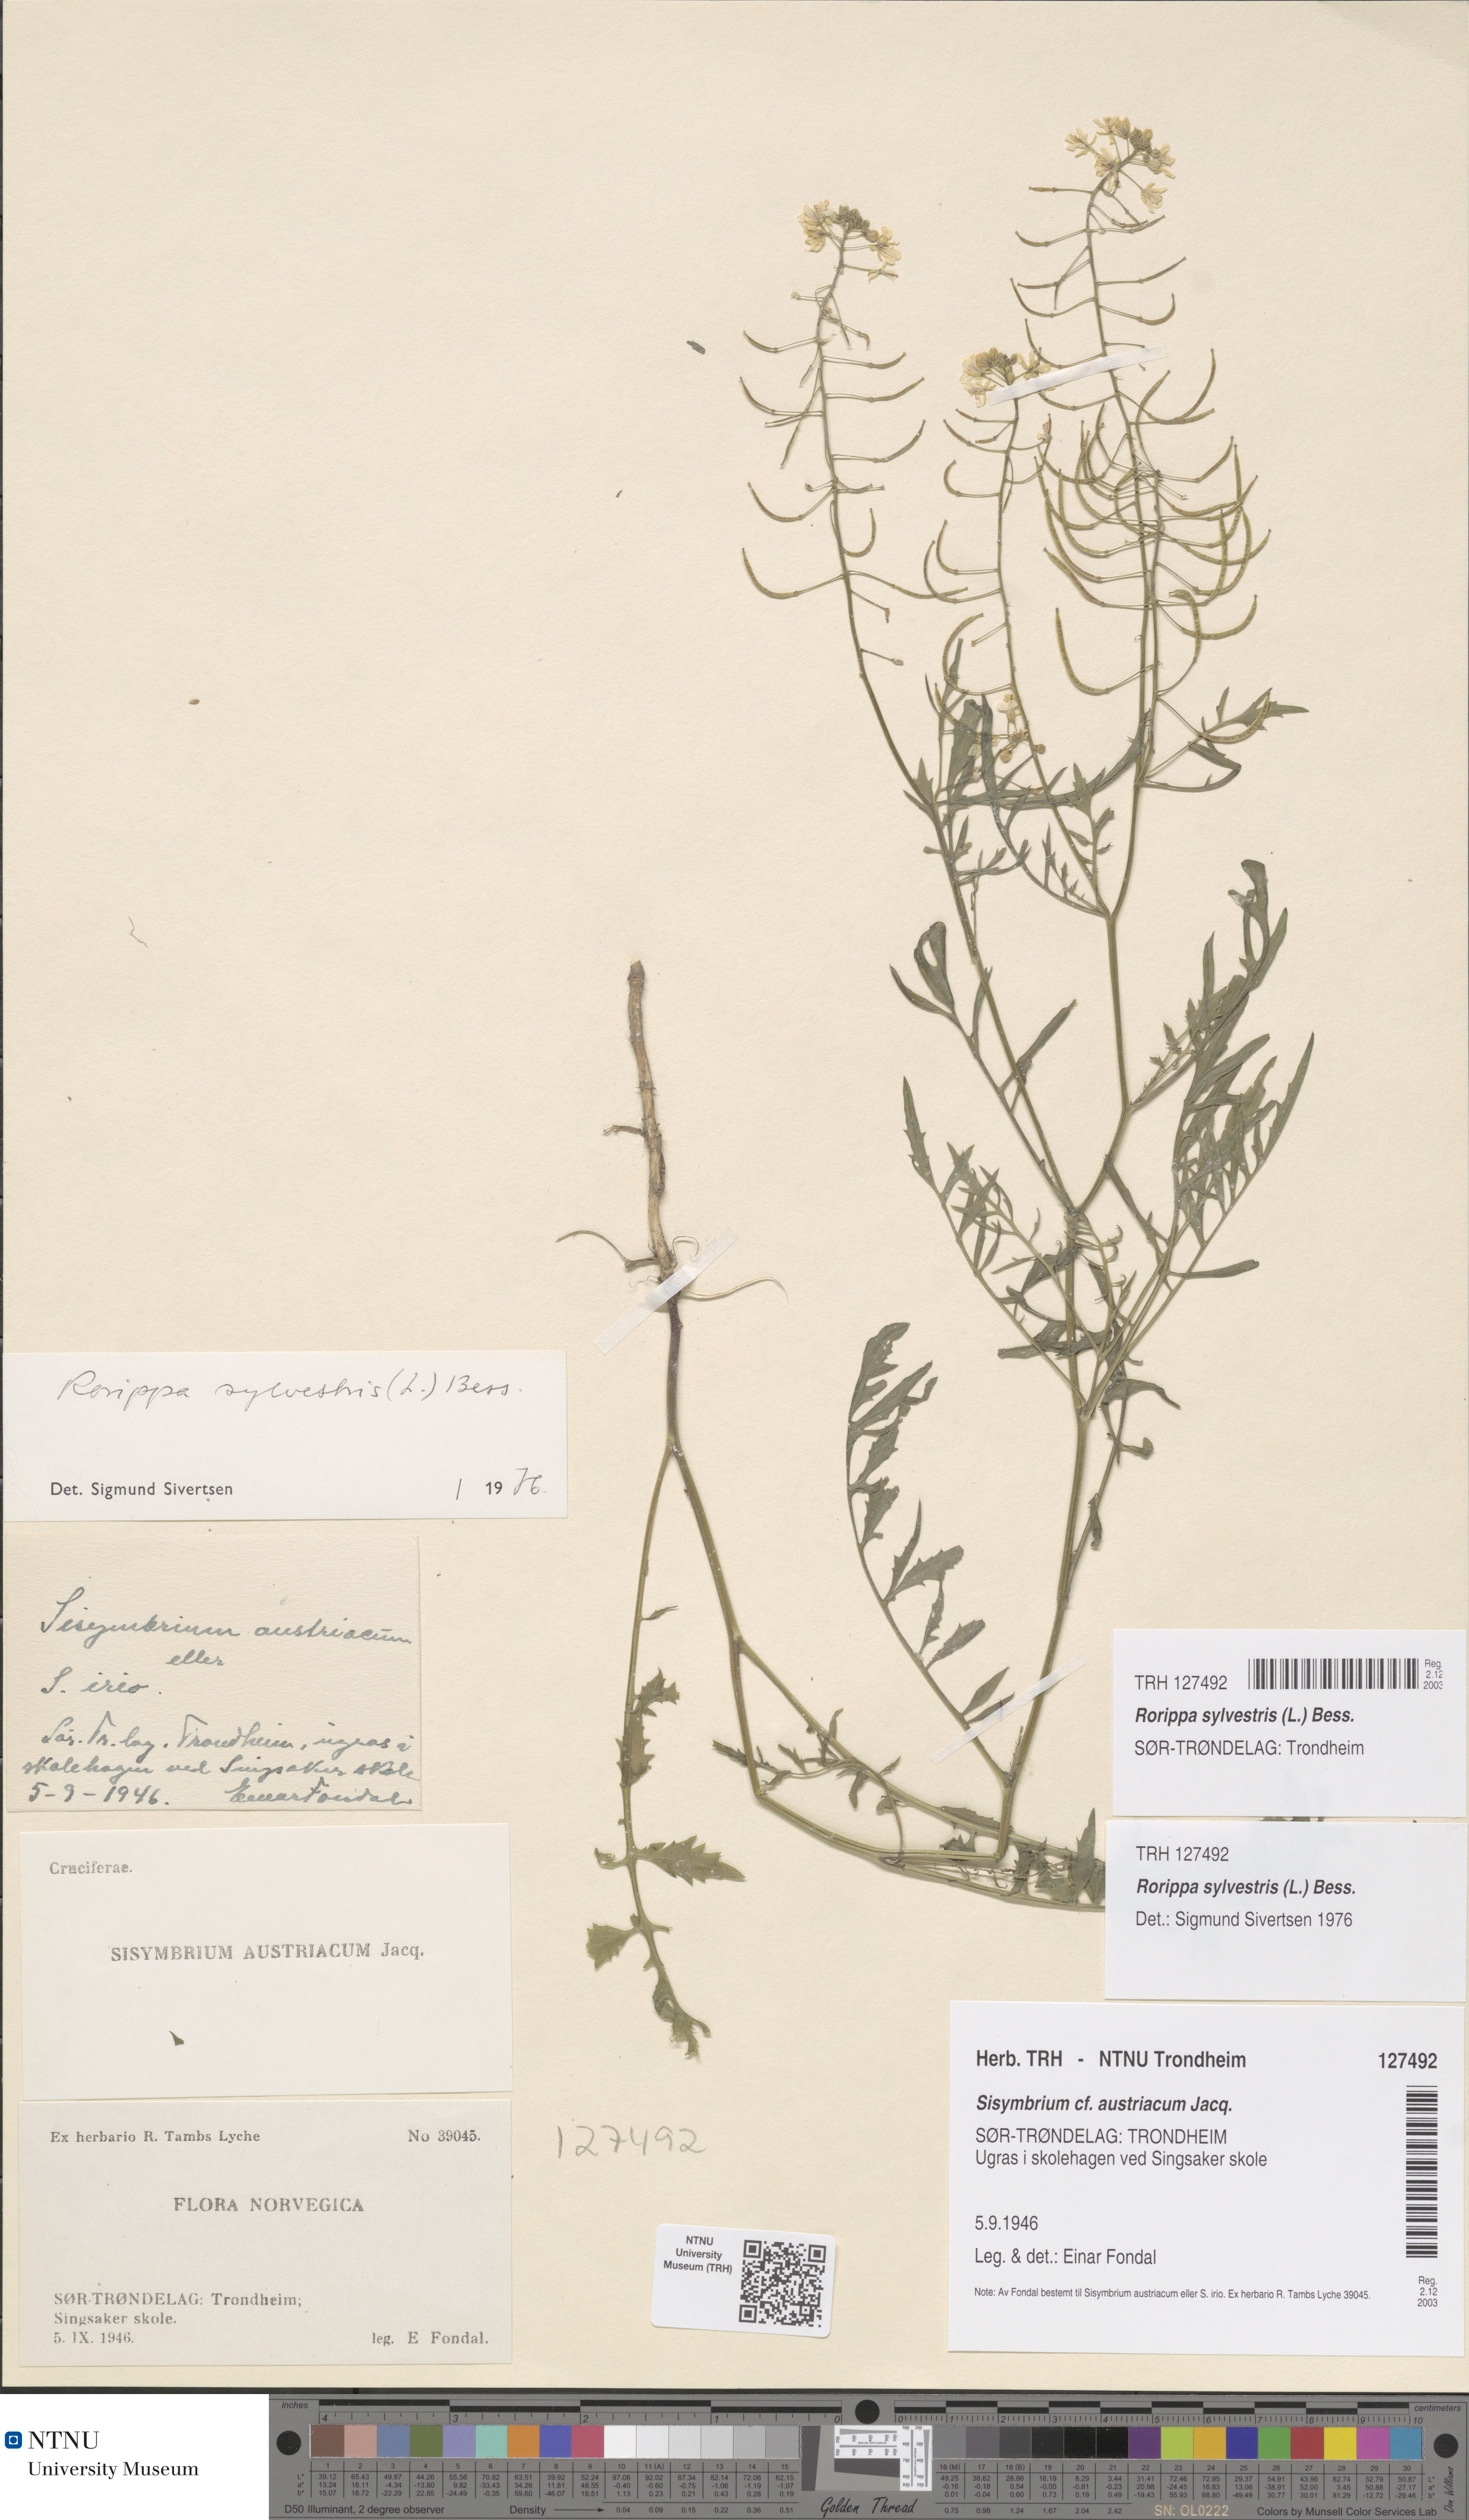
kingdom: Plantae
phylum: Tracheophyta
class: Magnoliopsida
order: Brassicales
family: Brassicaceae
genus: Rorippa
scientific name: Rorippa sylvestris
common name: Creeping yellowcress
